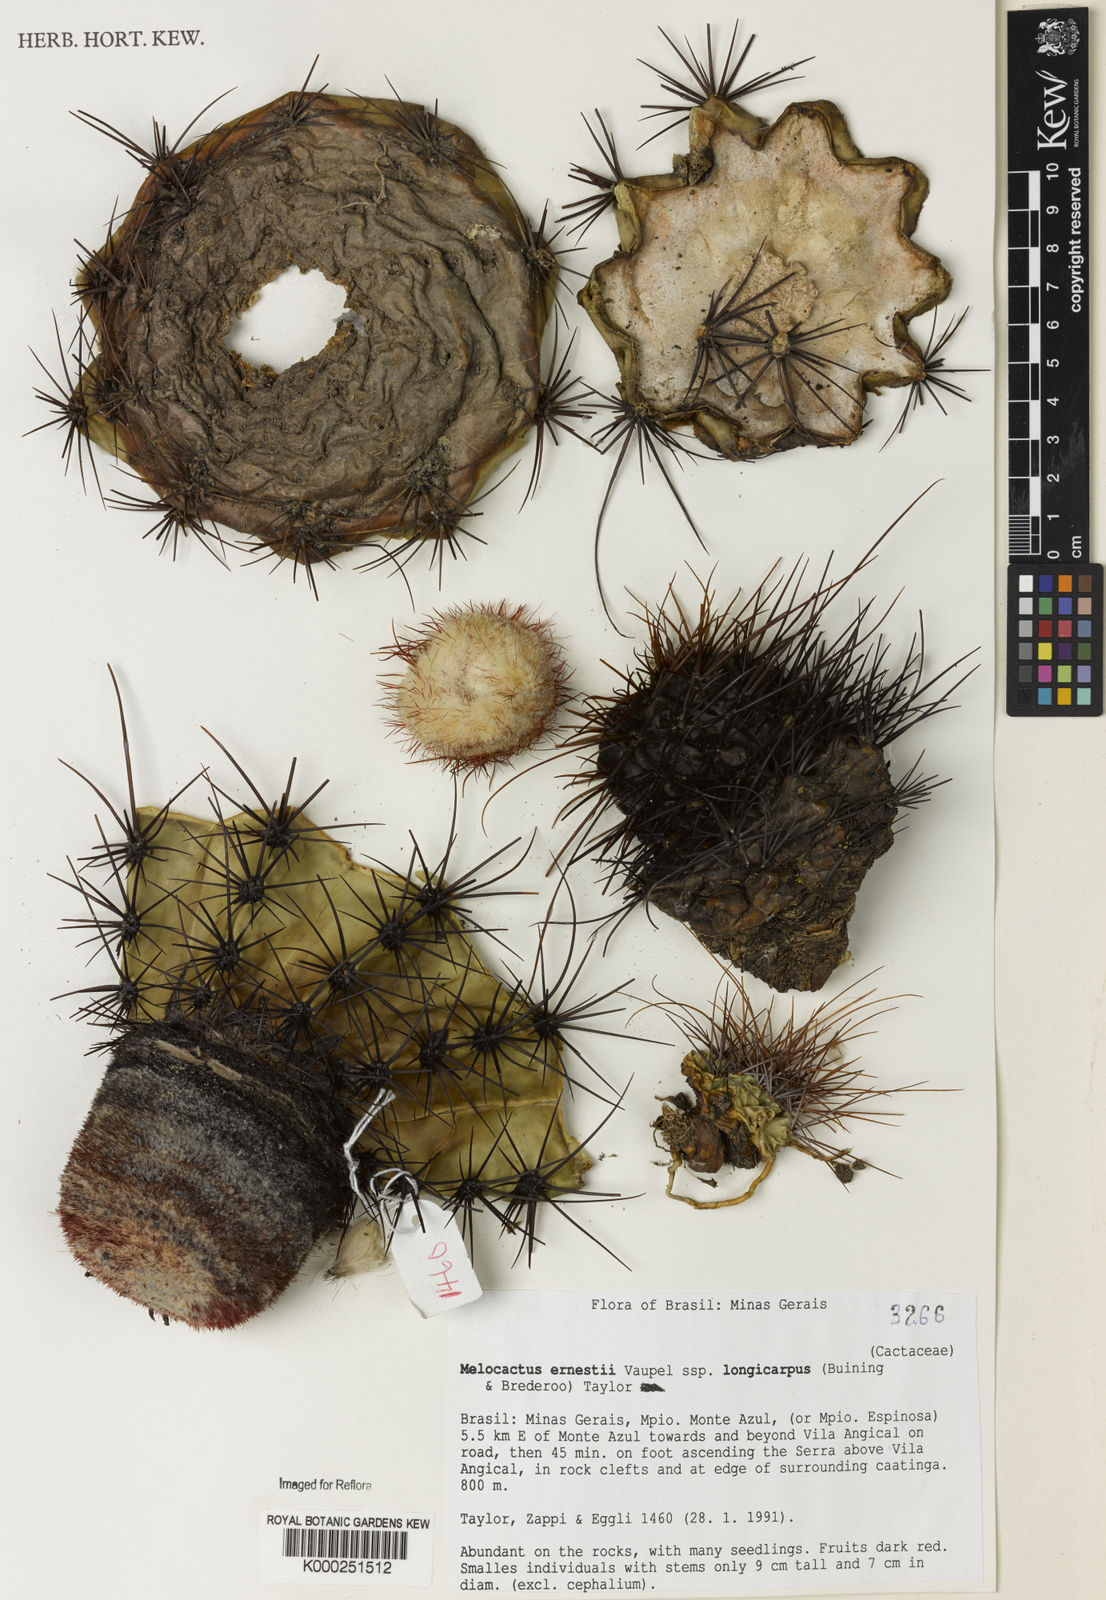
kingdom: Plantae
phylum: Tracheophyta
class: Magnoliopsida
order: Caryophyllales
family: Cactaceae
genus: Melocactus
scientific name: Melocactus ernestii
